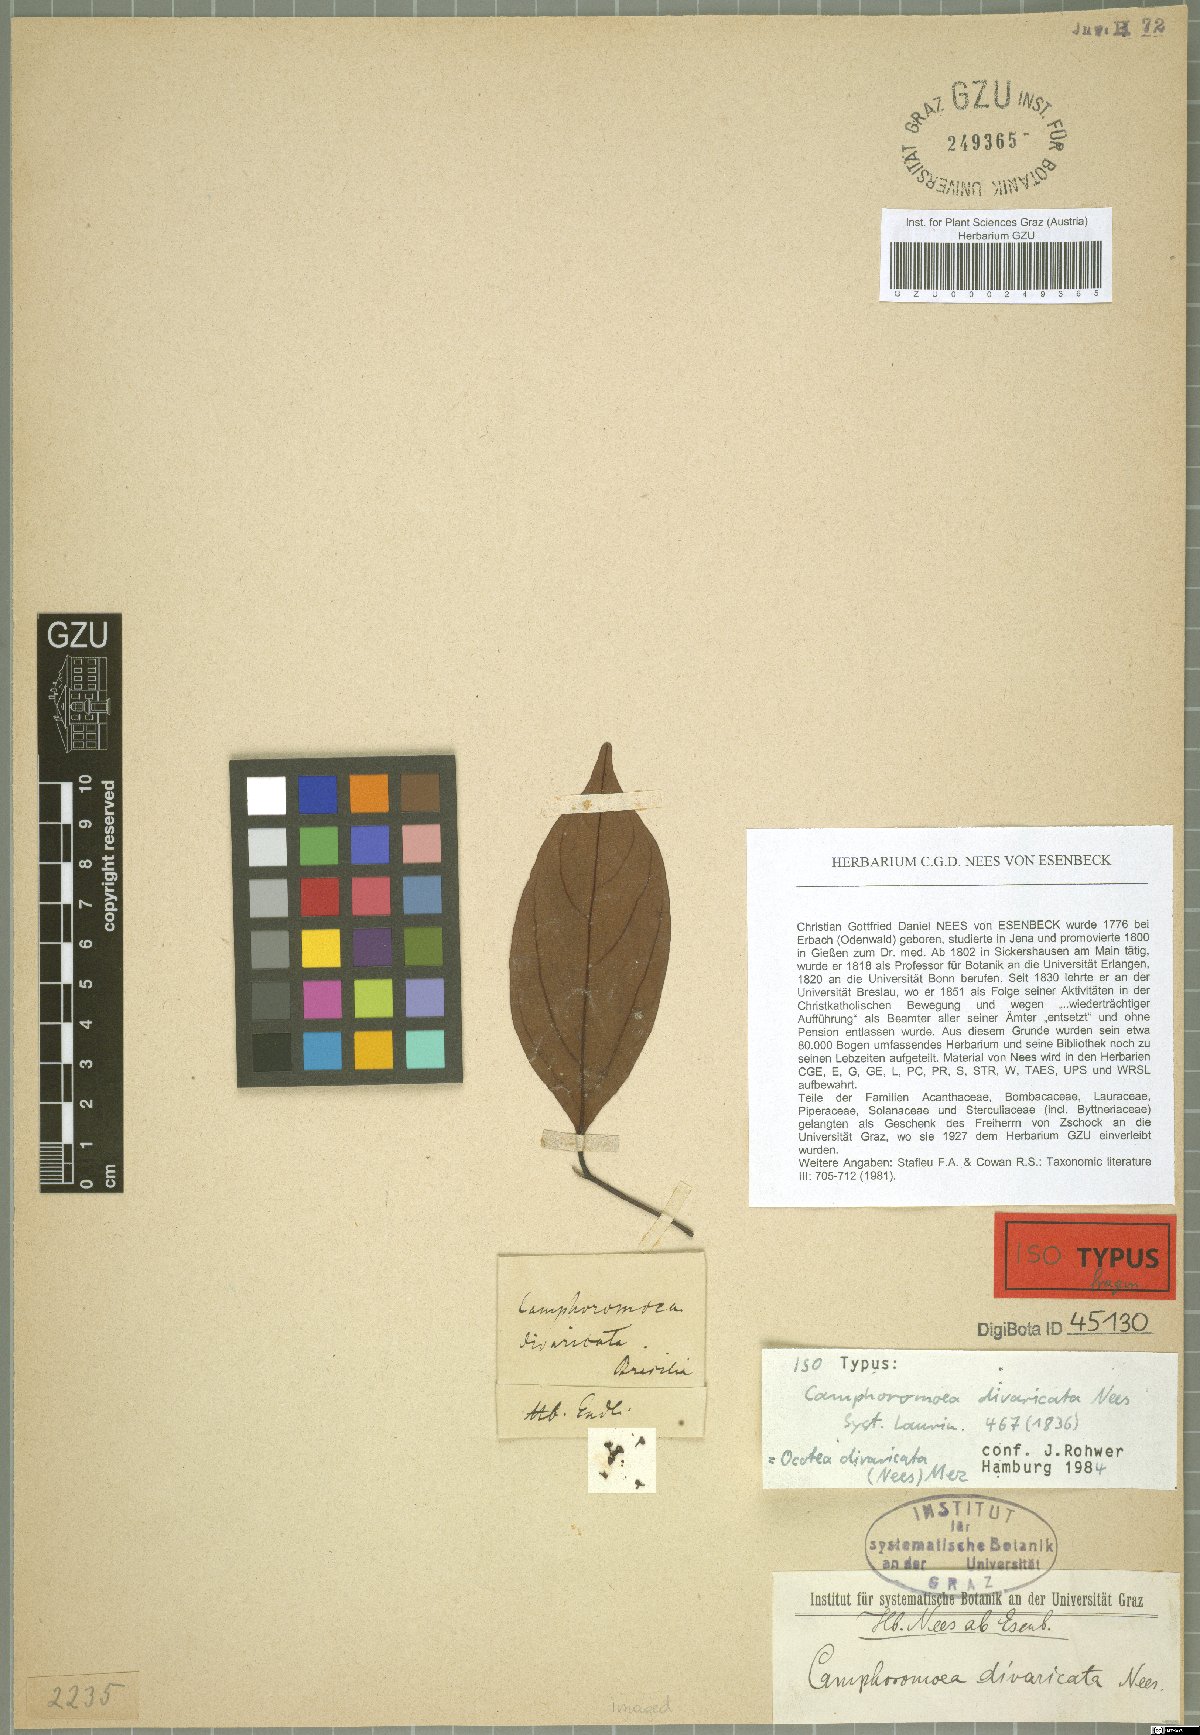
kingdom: Plantae
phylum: Tracheophyta
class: Magnoliopsida
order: Laurales
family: Lauraceae
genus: Ocotea
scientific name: Ocotea divaricata
